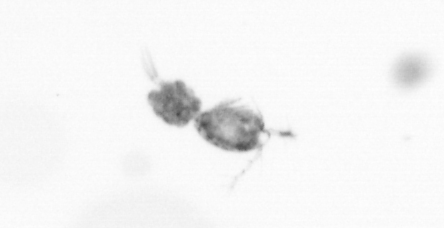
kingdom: Animalia
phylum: Arthropoda
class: Copepoda
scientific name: Copepoda
